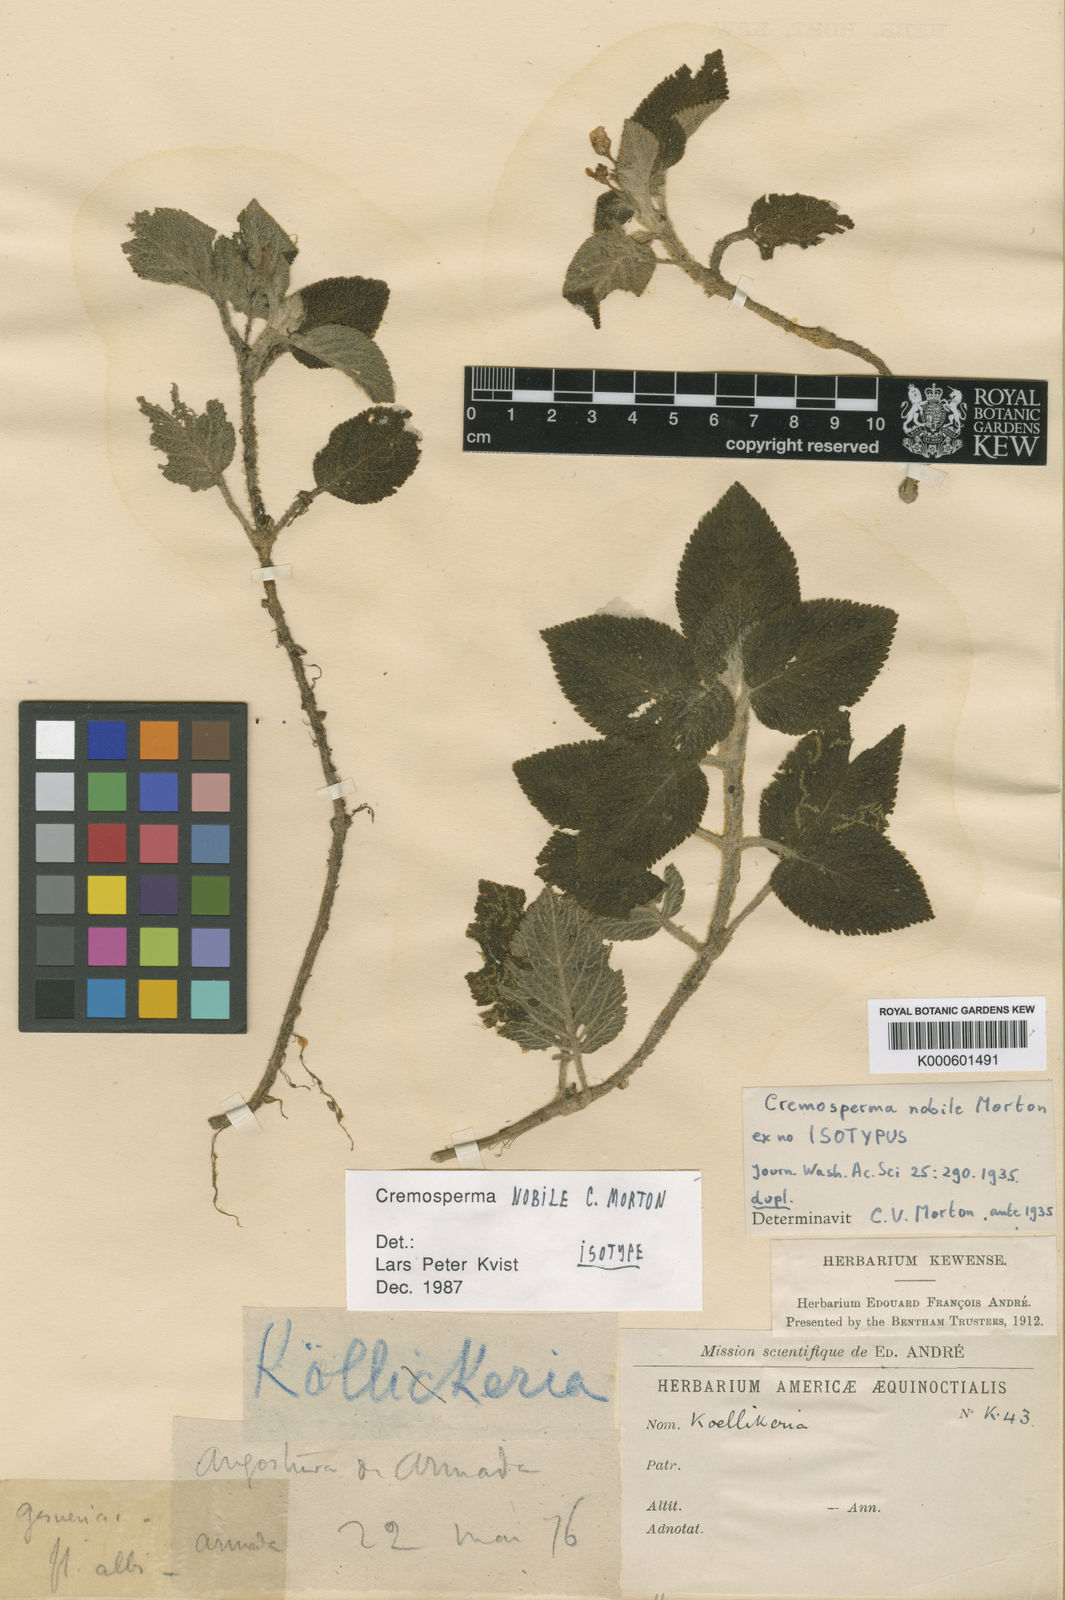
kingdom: Plantae
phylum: Tracheophyta
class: Magnoliopsida
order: Lamiales
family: Gesneriaceae
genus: Cremosperma
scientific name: Cremosperma nobile
